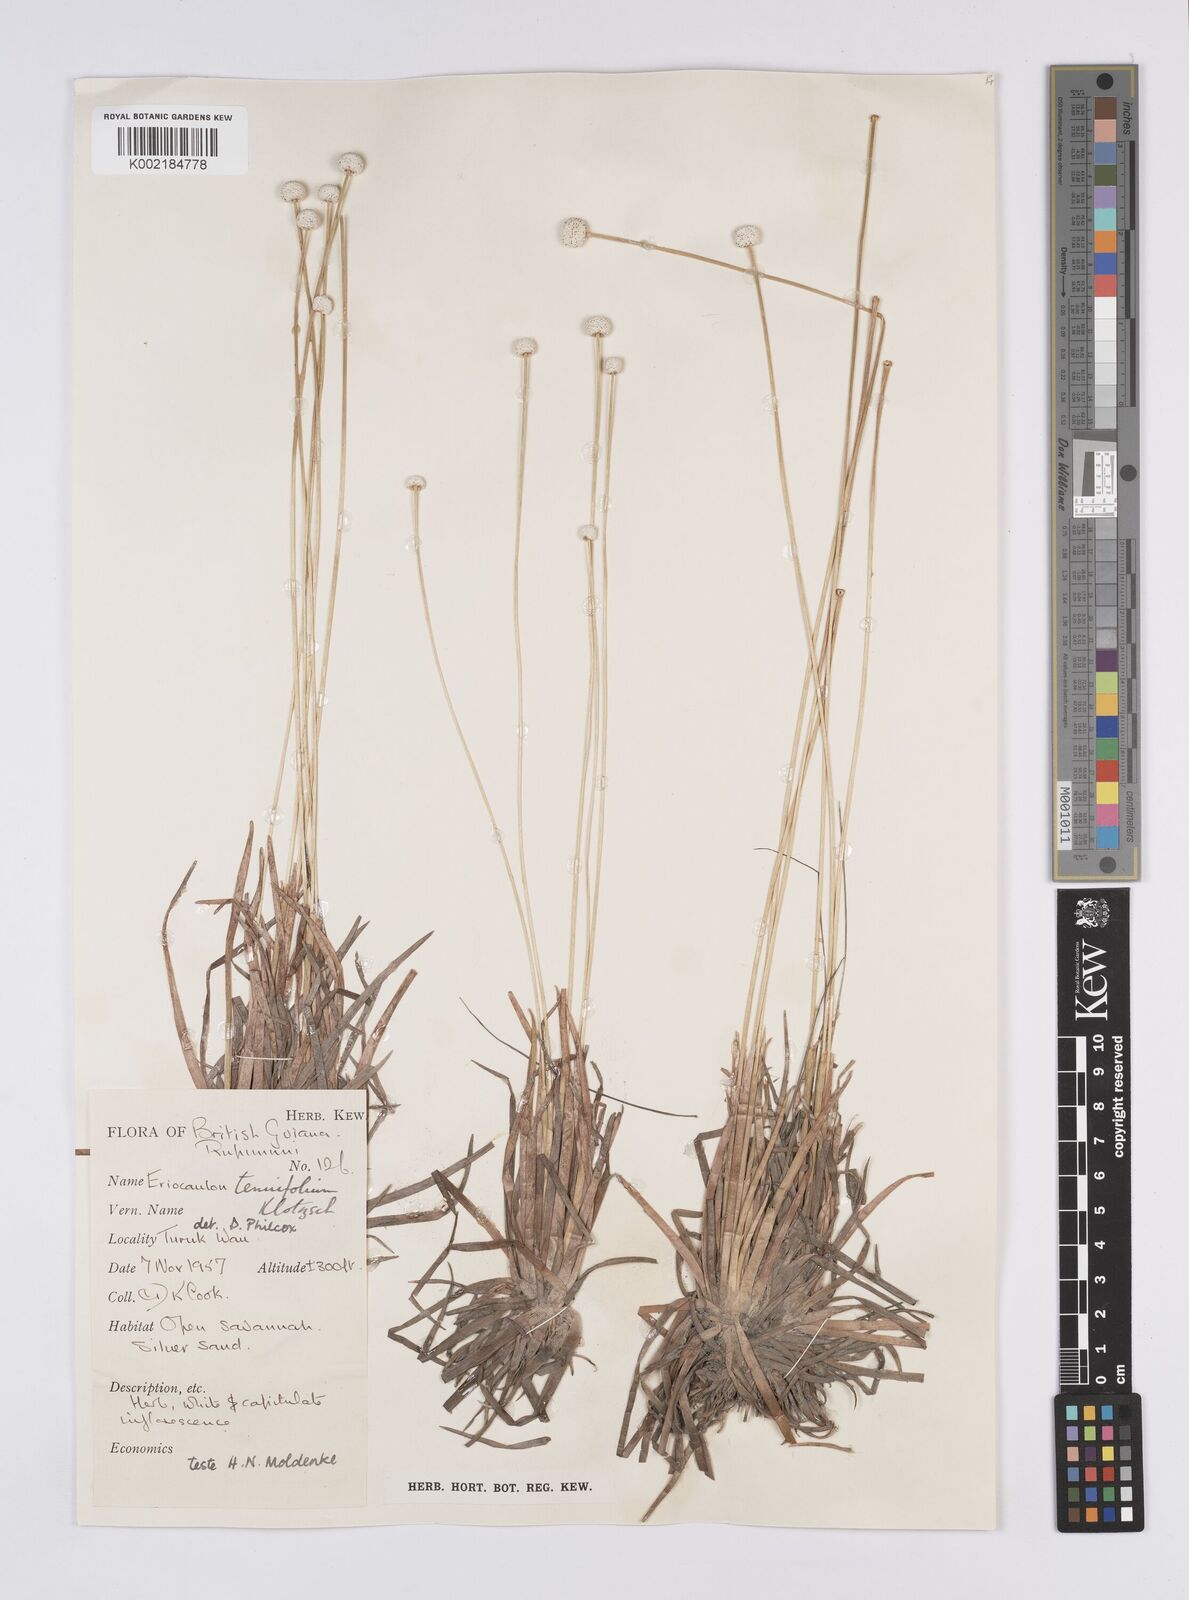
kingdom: Plantae
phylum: Tracheophyta
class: Liliopsida
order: Poales
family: Eriocaulaceae
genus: Eriocaulon
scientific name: Eriocaulon tenuifolium
